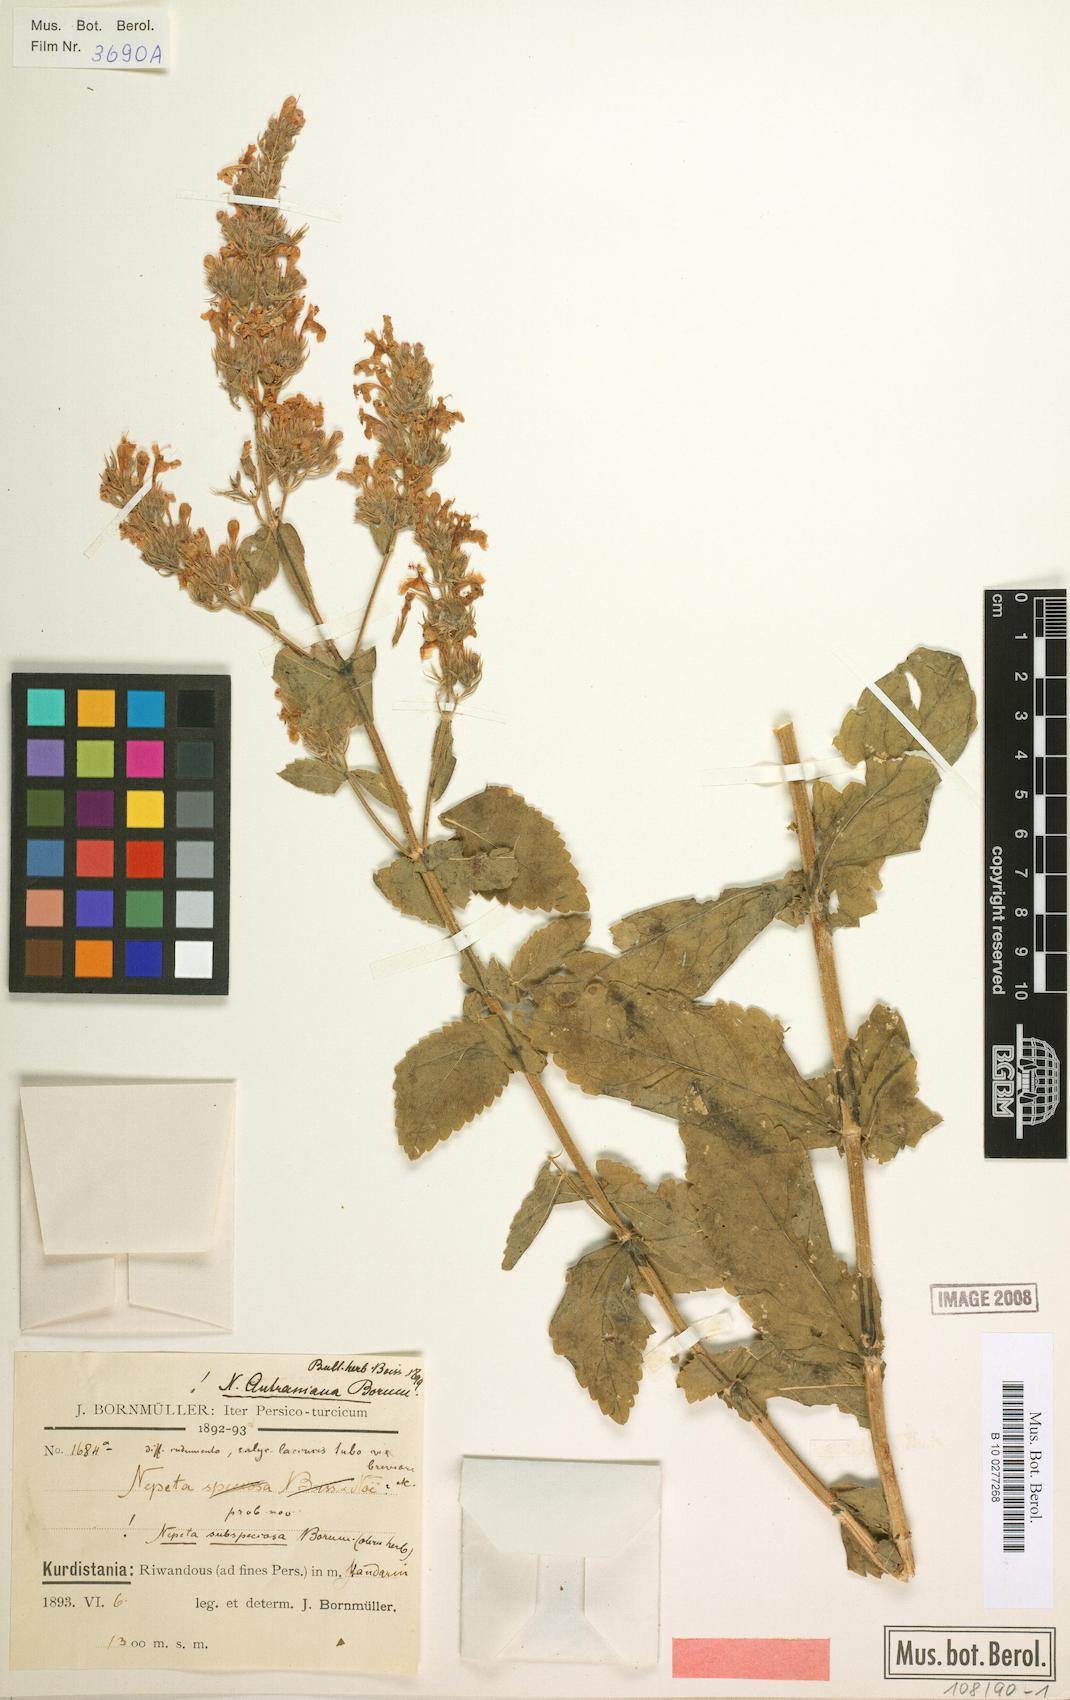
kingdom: Plantae
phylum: Tracheophyta
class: Magnoliopsida
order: Lamiales
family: Lamiaceae
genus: Nepeta
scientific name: Nepeta autraniana
